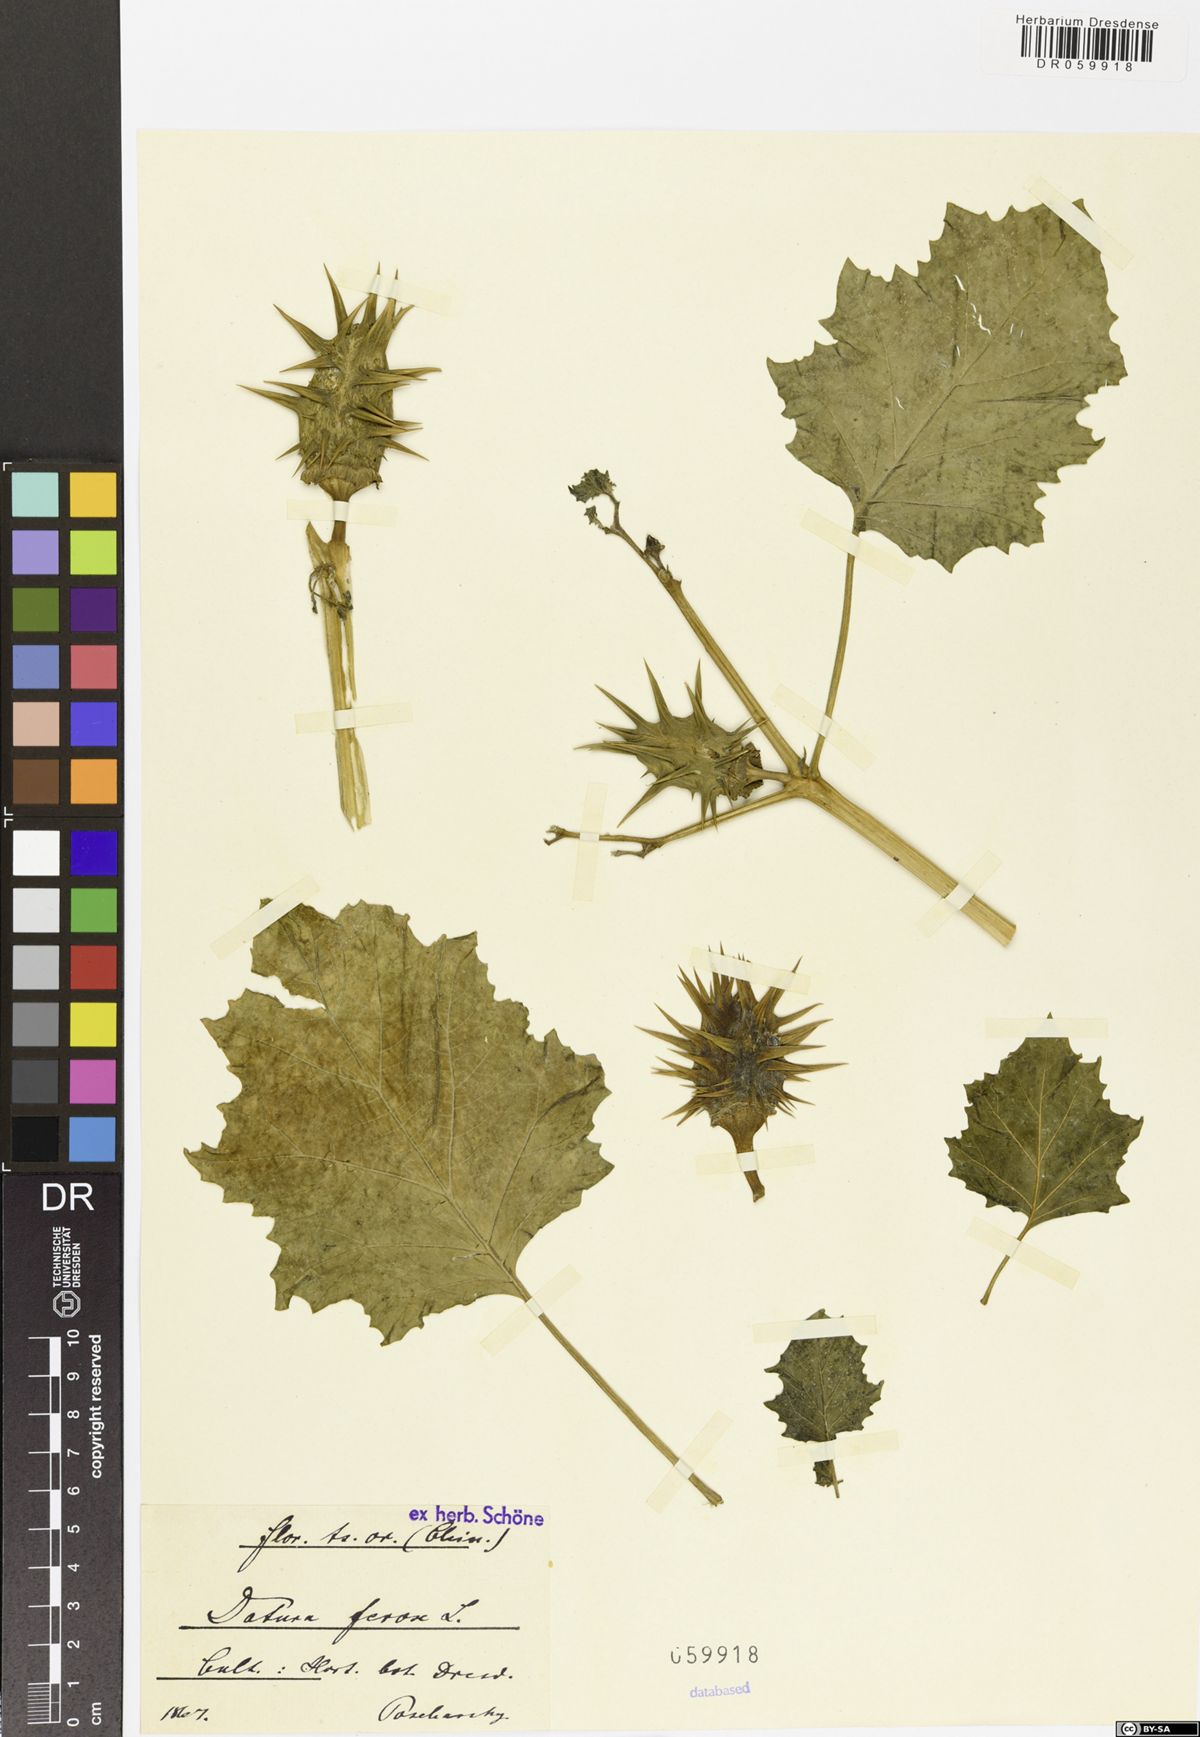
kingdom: Plantae
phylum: Tracheophyta
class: Magnoliopsida
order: Solanales
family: Solanaceae
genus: Datura
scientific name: Datura ferox
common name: Angel's-trumpets
